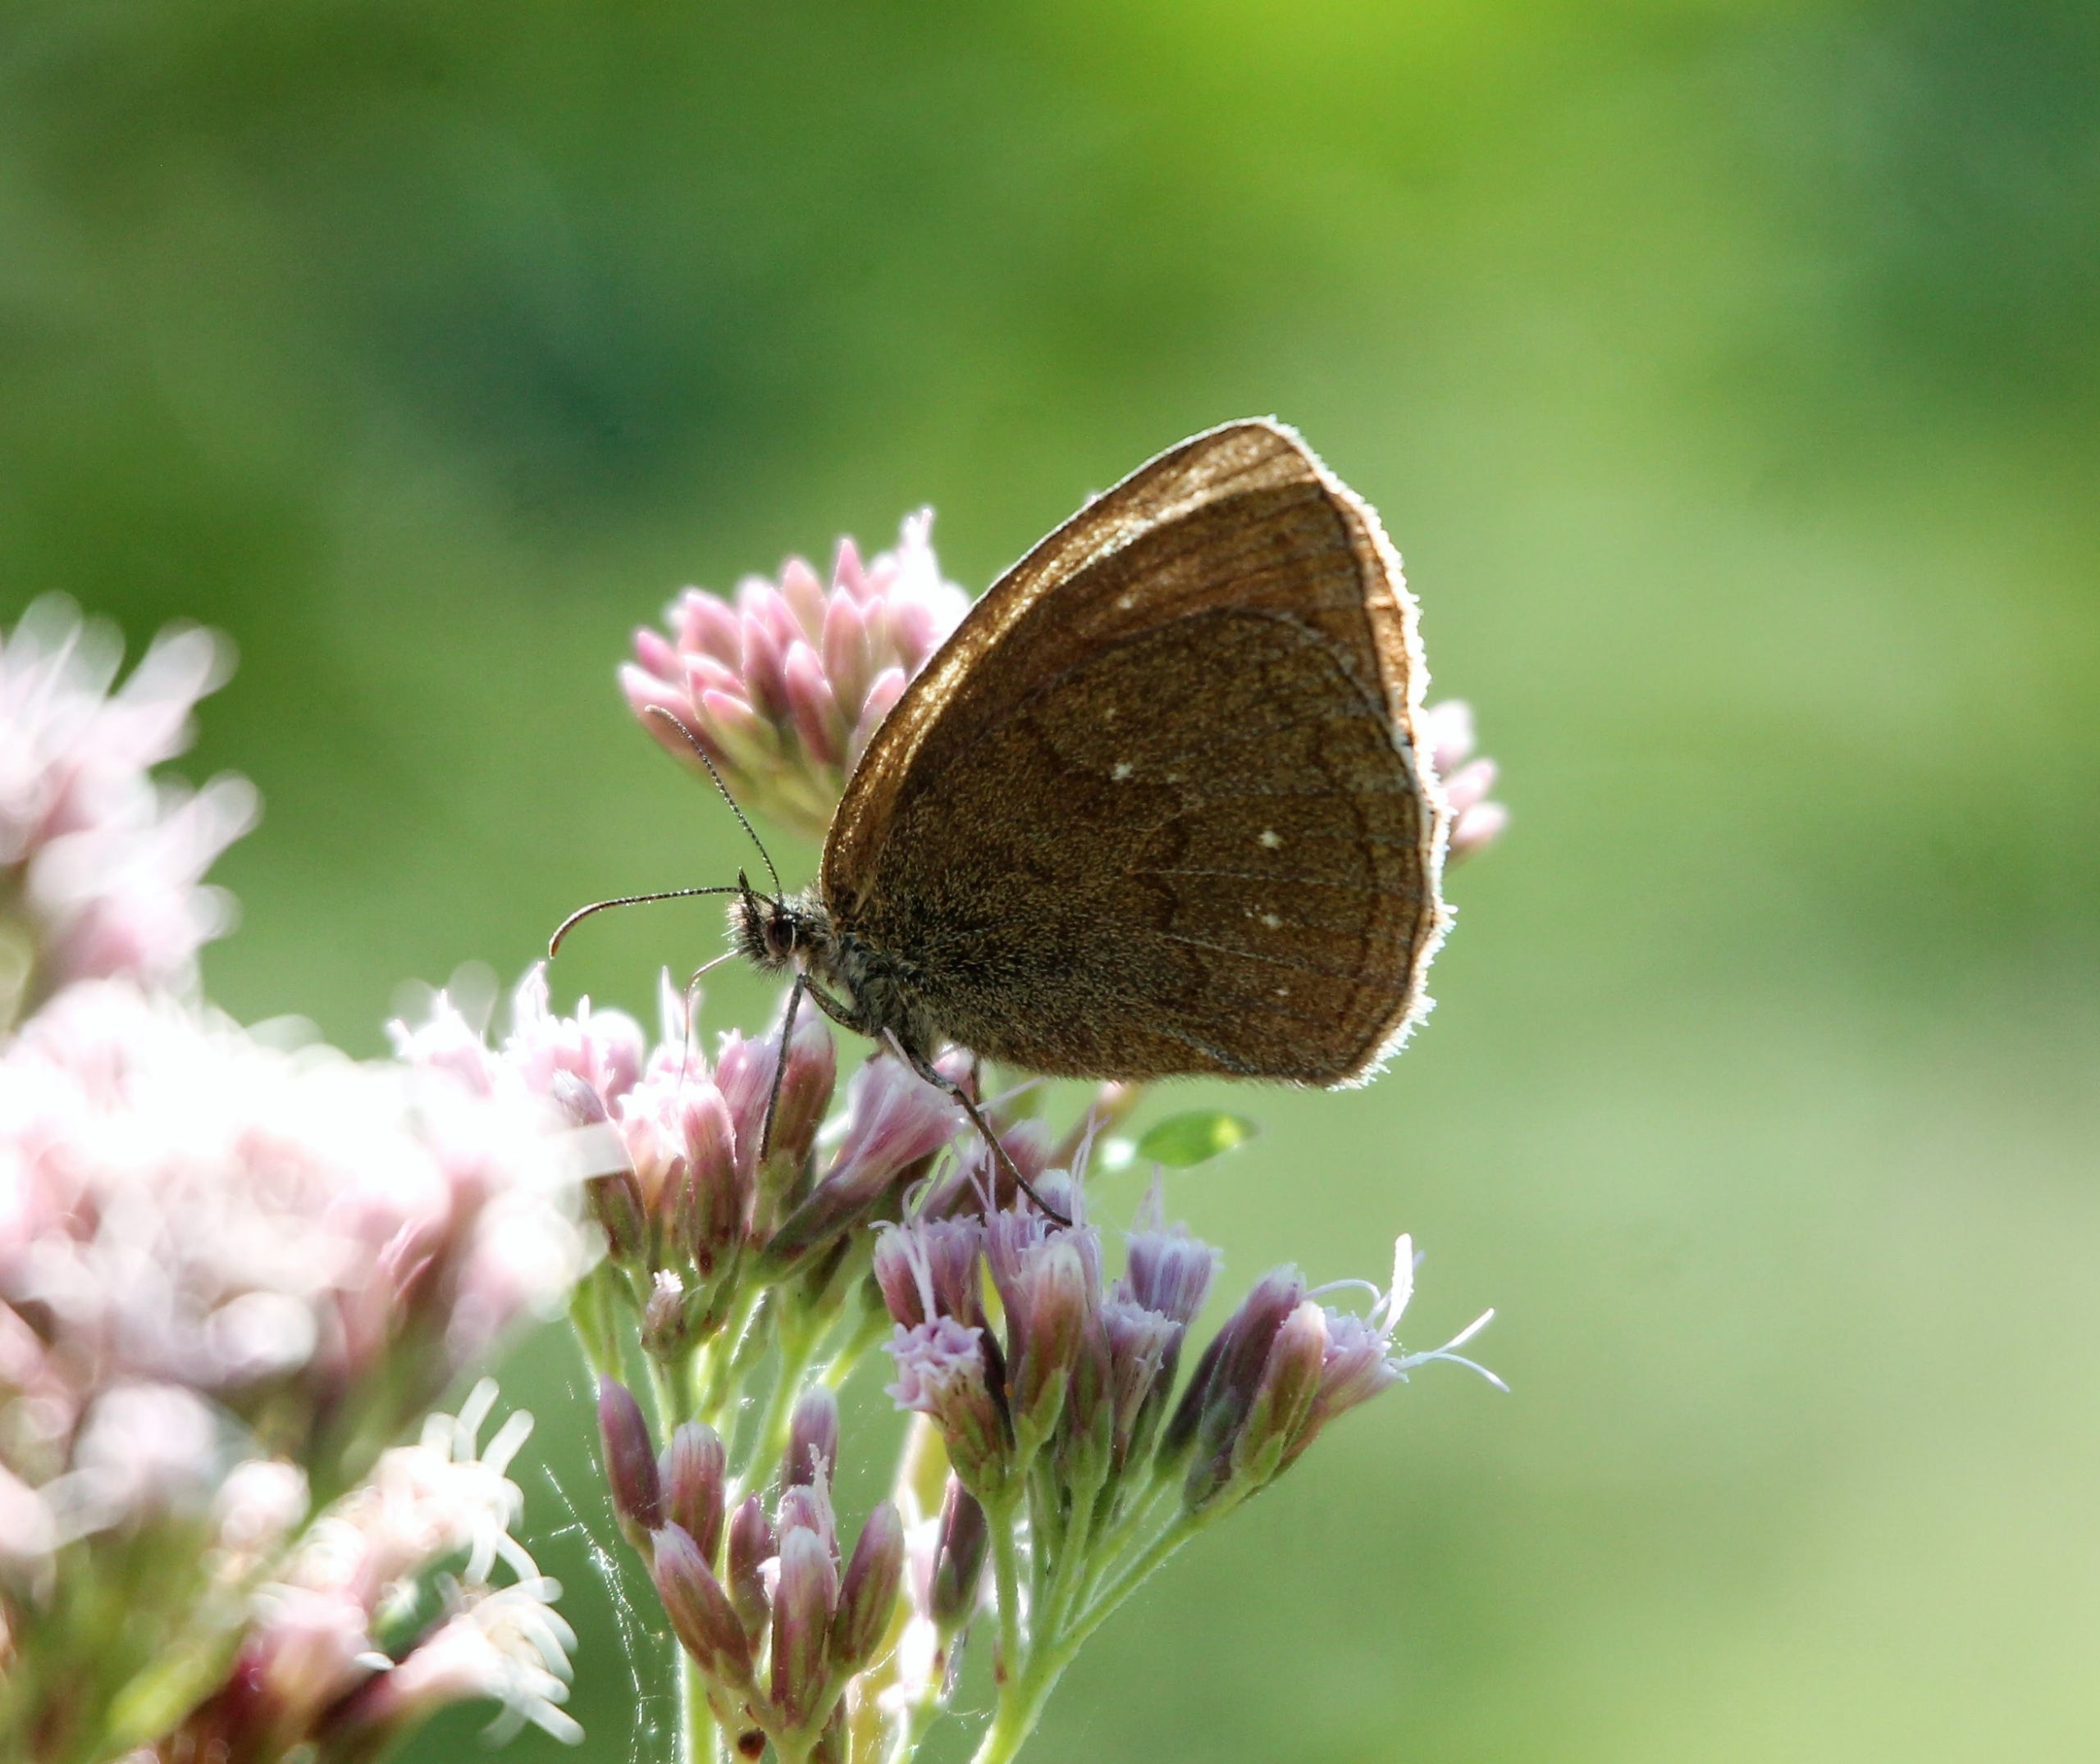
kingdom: Animalia
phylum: Arthropoda
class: Insecta
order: Lepidoptera
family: Nymphalidae
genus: Aphantopus
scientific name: Aphantopus hyperantus
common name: Engrandøje
